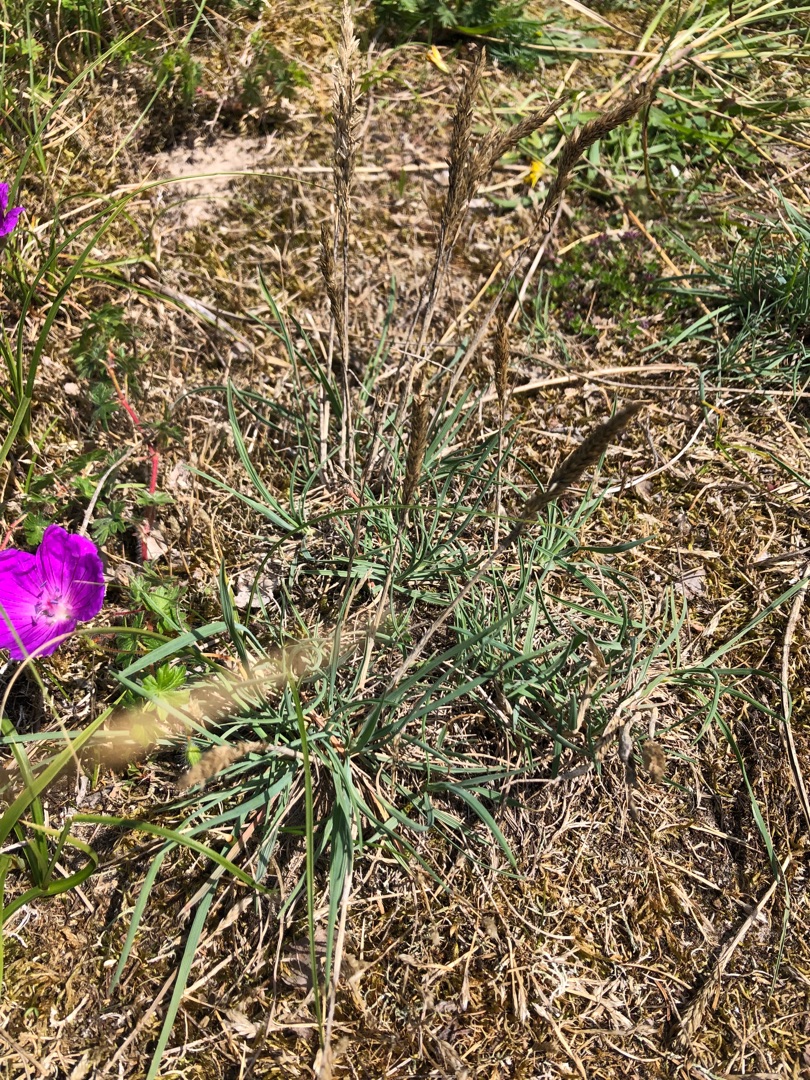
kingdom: Plantae
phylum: Tracheophyta
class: Liliopsida
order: Poales
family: Poaceae
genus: Koeleria
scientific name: Koeleria glauca
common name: Klit-kambunke
